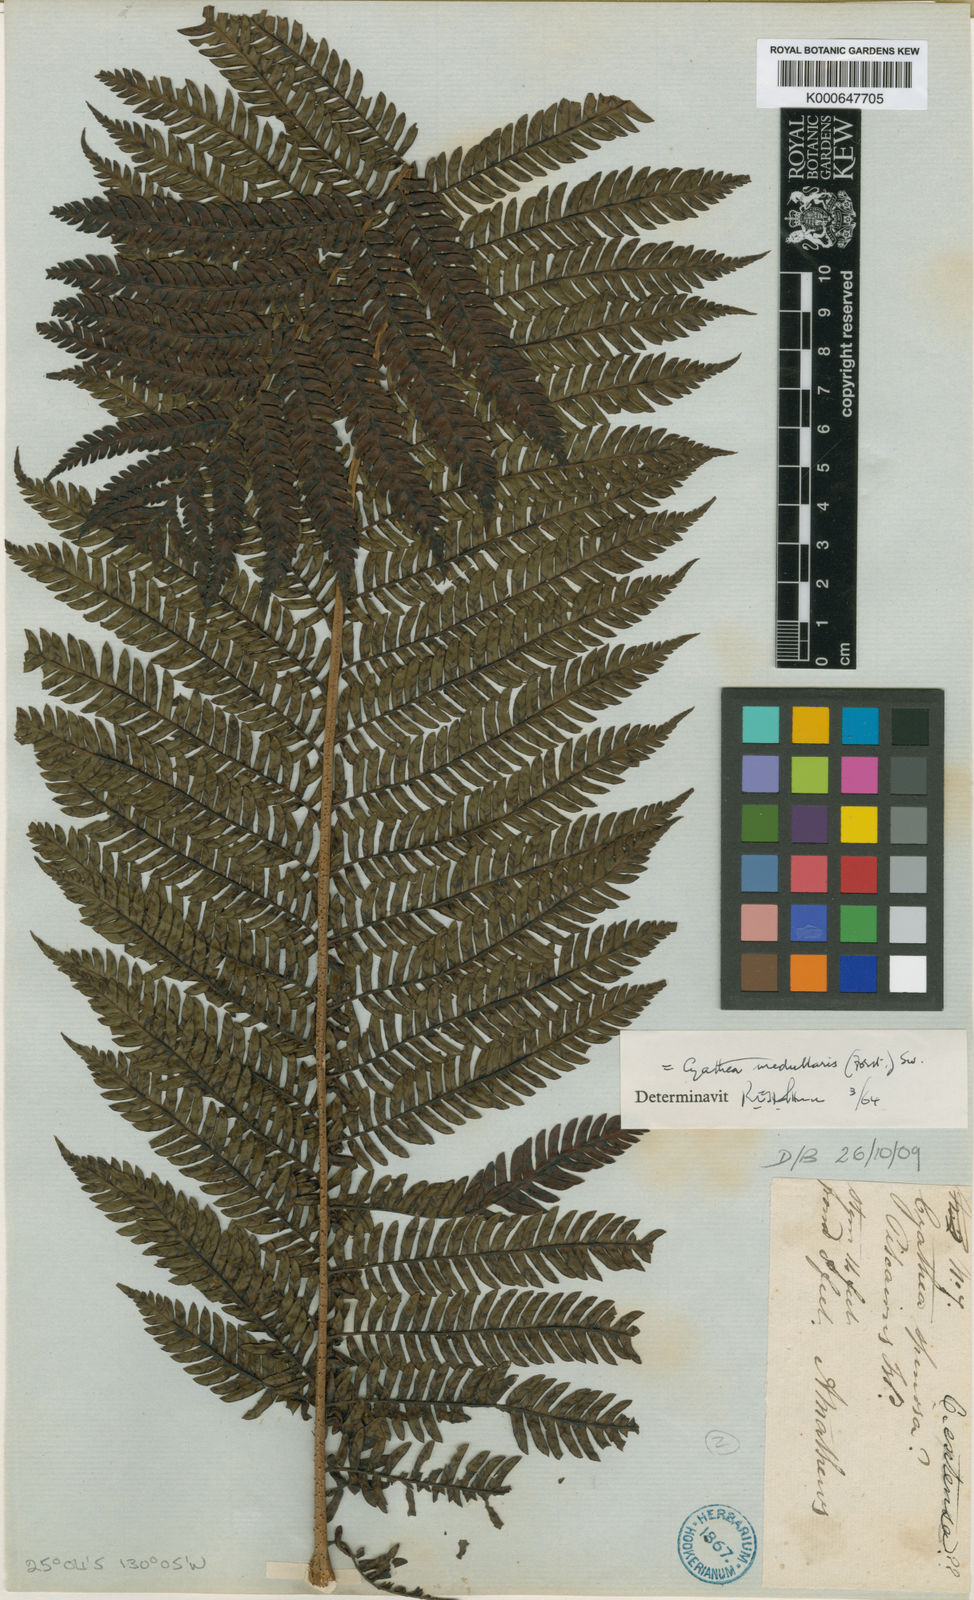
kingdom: Plantae
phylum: Tracheophyta
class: Polypodiopsida
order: Cyatheales
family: Cyatheaceae
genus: Sphaeropteris
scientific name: Sphaeropteris medullaris
